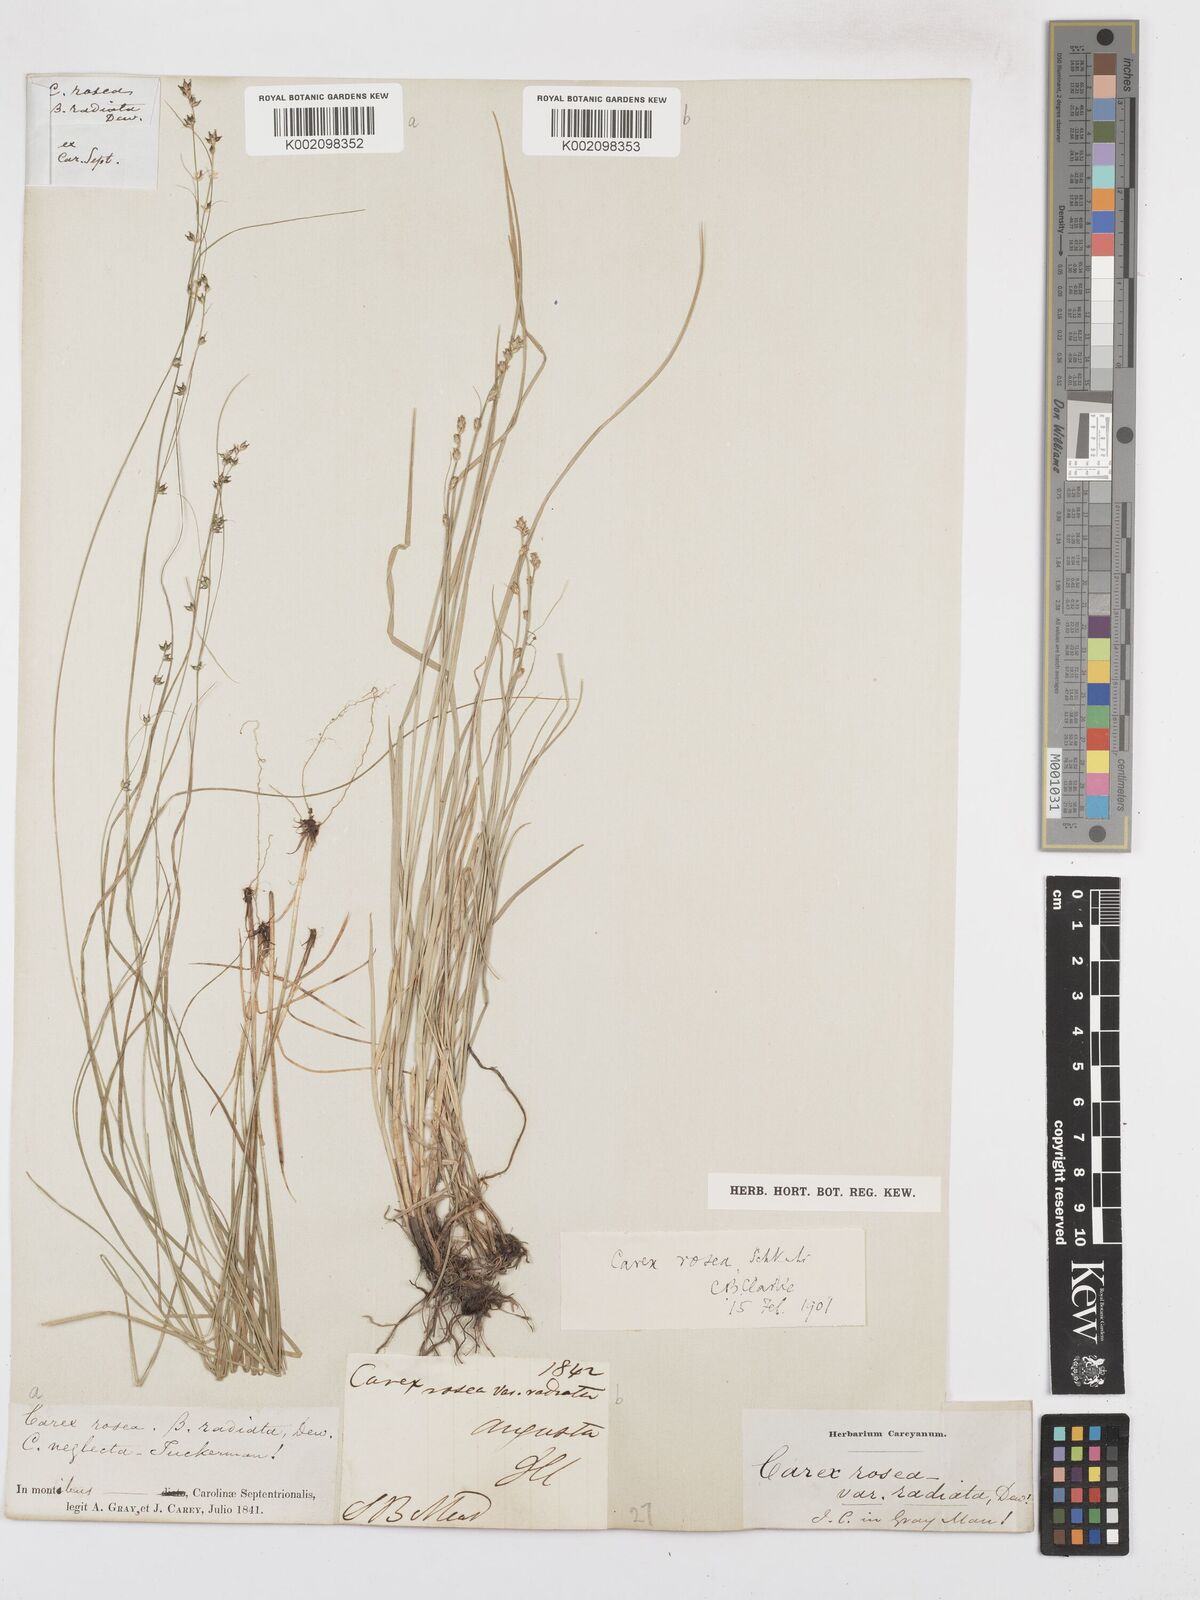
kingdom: Plantae
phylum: Tracheophyta
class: Liliopsida
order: Poales
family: Cyperaceae
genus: Carex
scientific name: Carex rosea
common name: Curly-styled wood sedge
